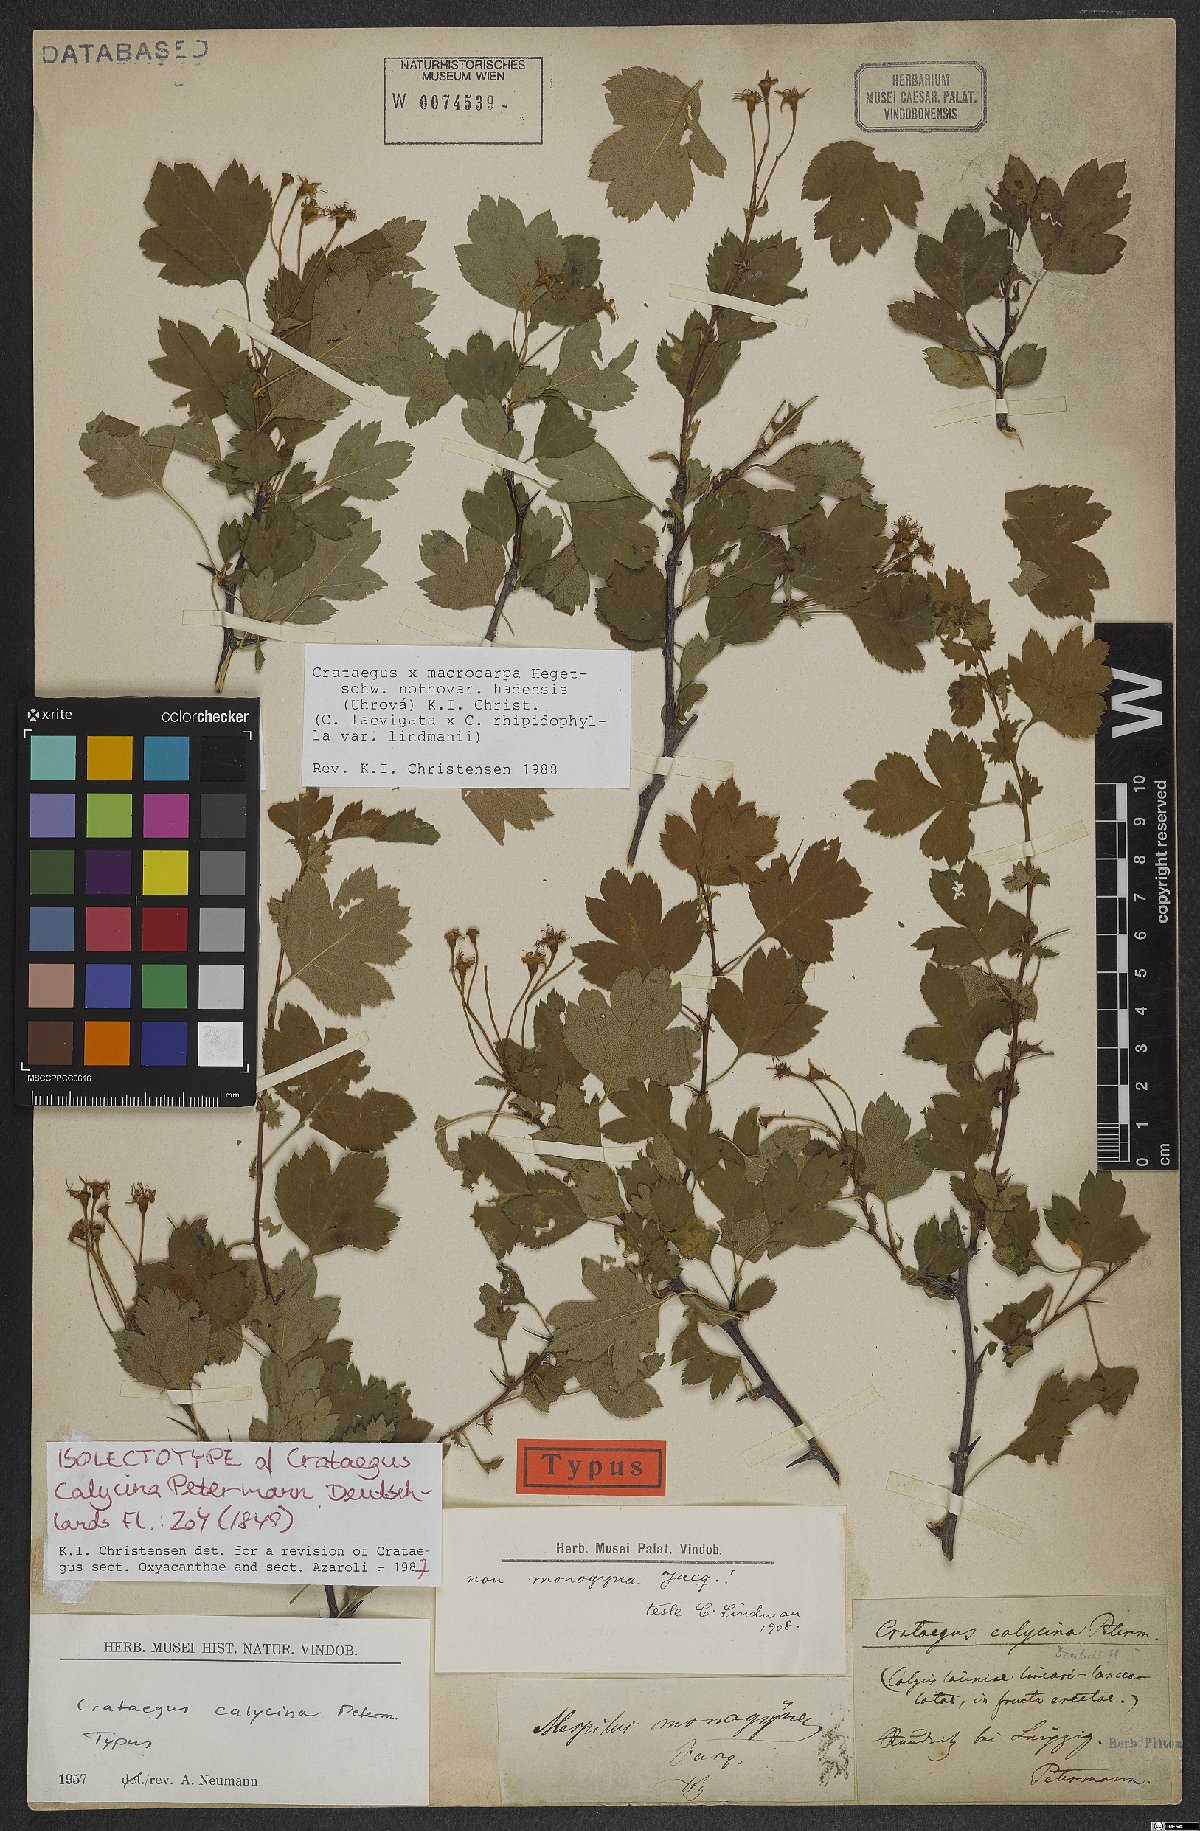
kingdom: Plantae
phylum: Tracheophyta
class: Magnoliopsida
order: Rosales
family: Rosaceae
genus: Crataegus
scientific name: Crataegus calycina
